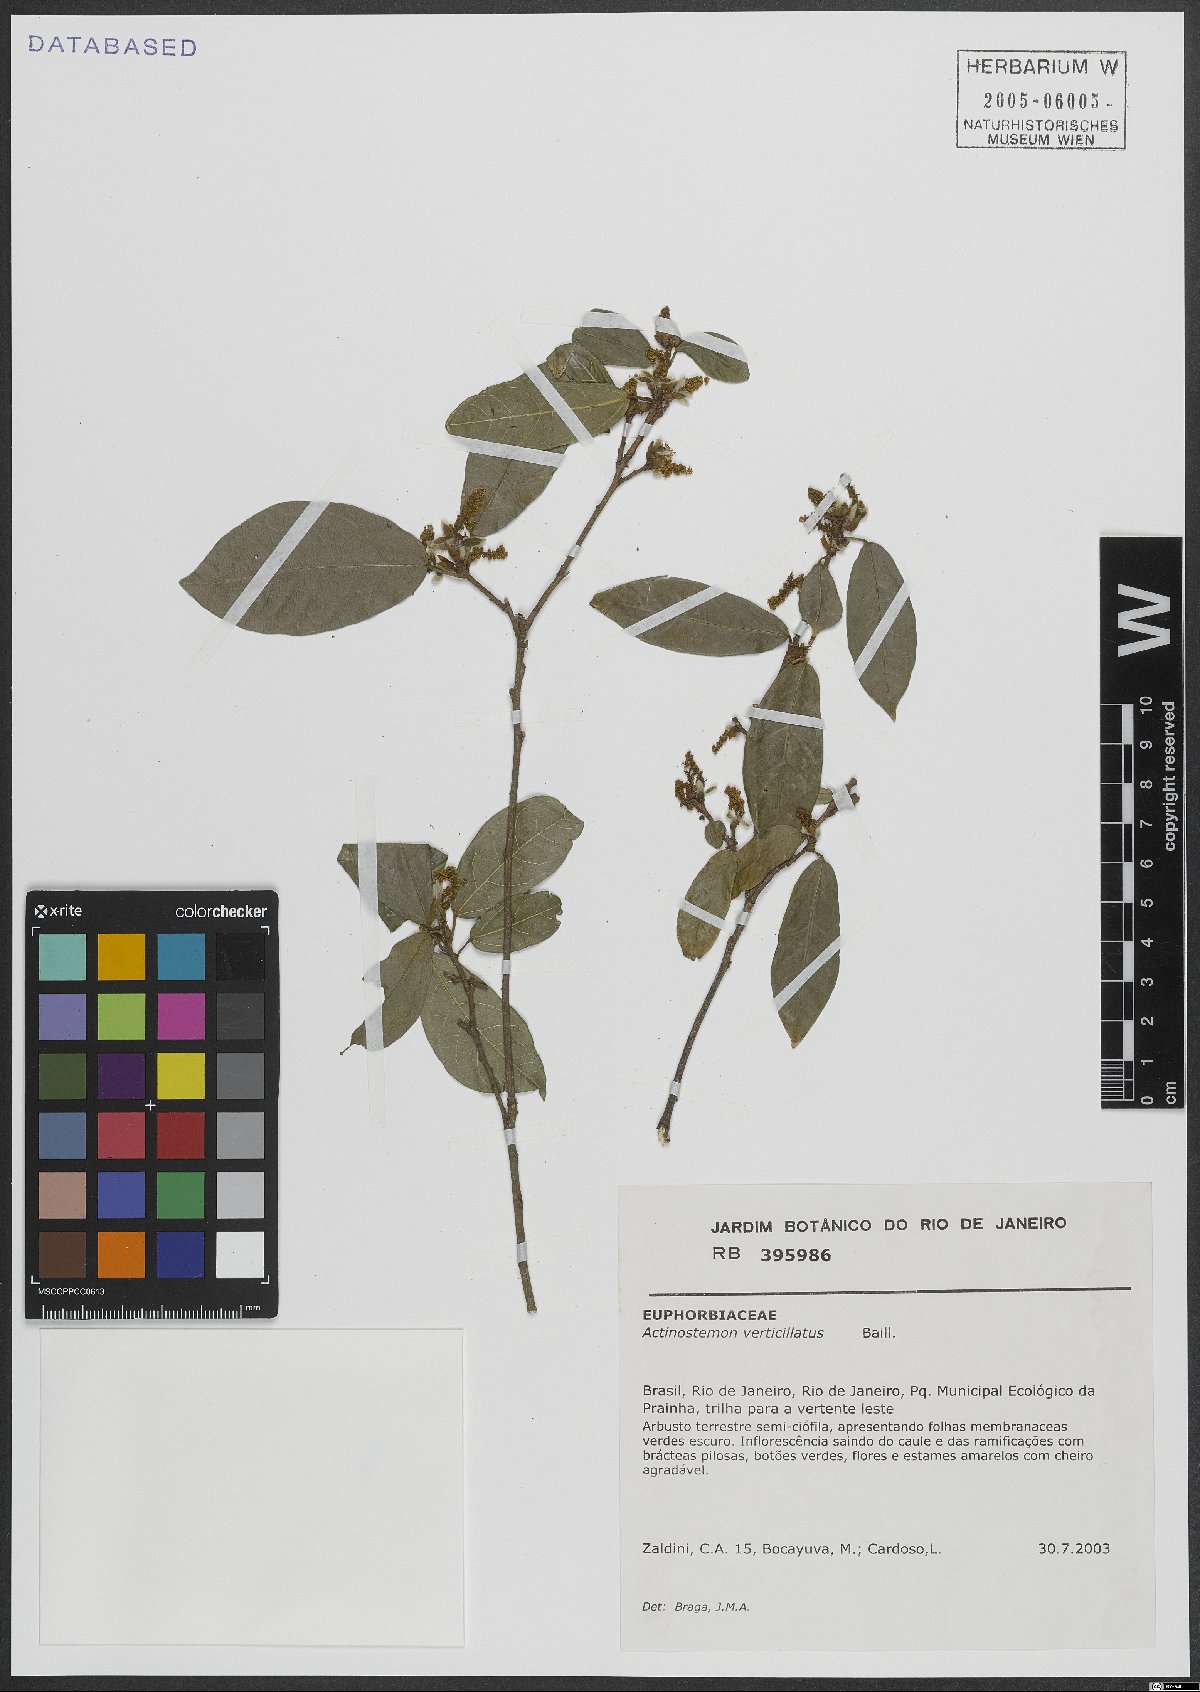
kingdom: Plantae
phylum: Tracheophyta
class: Magnoliopsida
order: Malpighiales
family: Euphorbiaceae
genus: Actinostemon
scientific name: Actinostemon verticillatus
